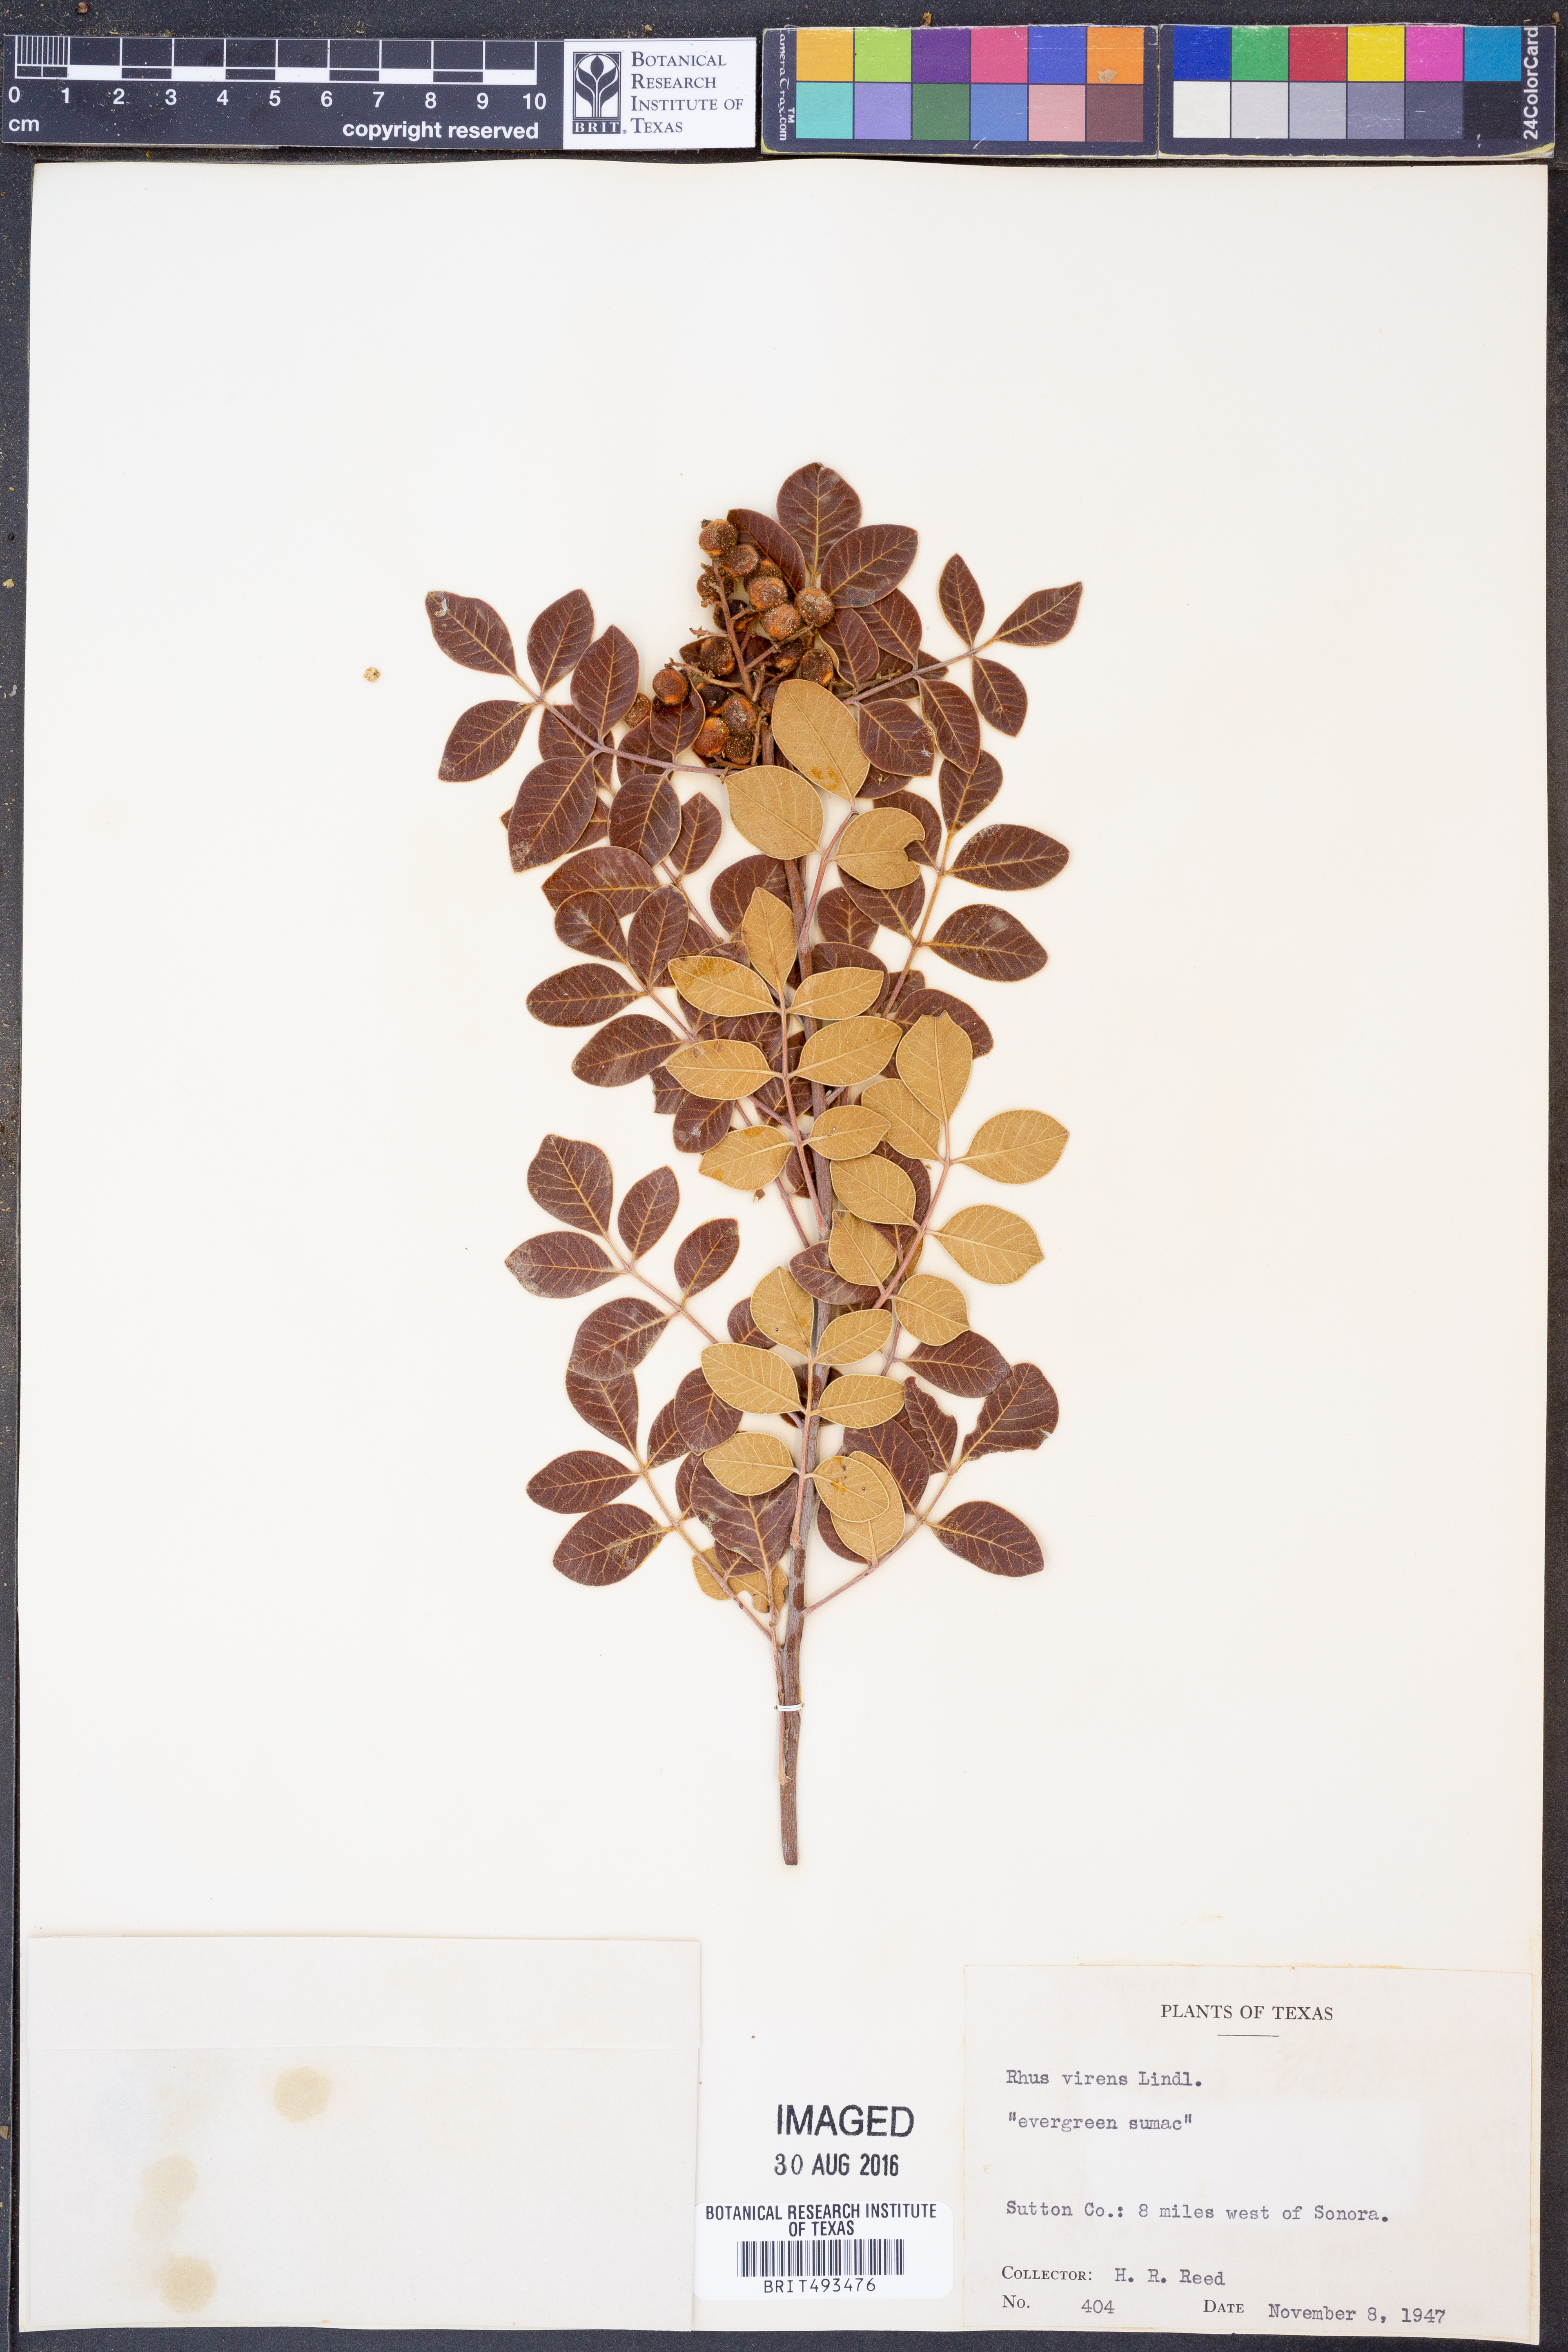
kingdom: Plantae
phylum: Tracheophyta
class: Magnoliopsida
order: Sapindales
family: Anacardiaceae
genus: Rhus
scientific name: Rhus virens
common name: Evergreen sumac
